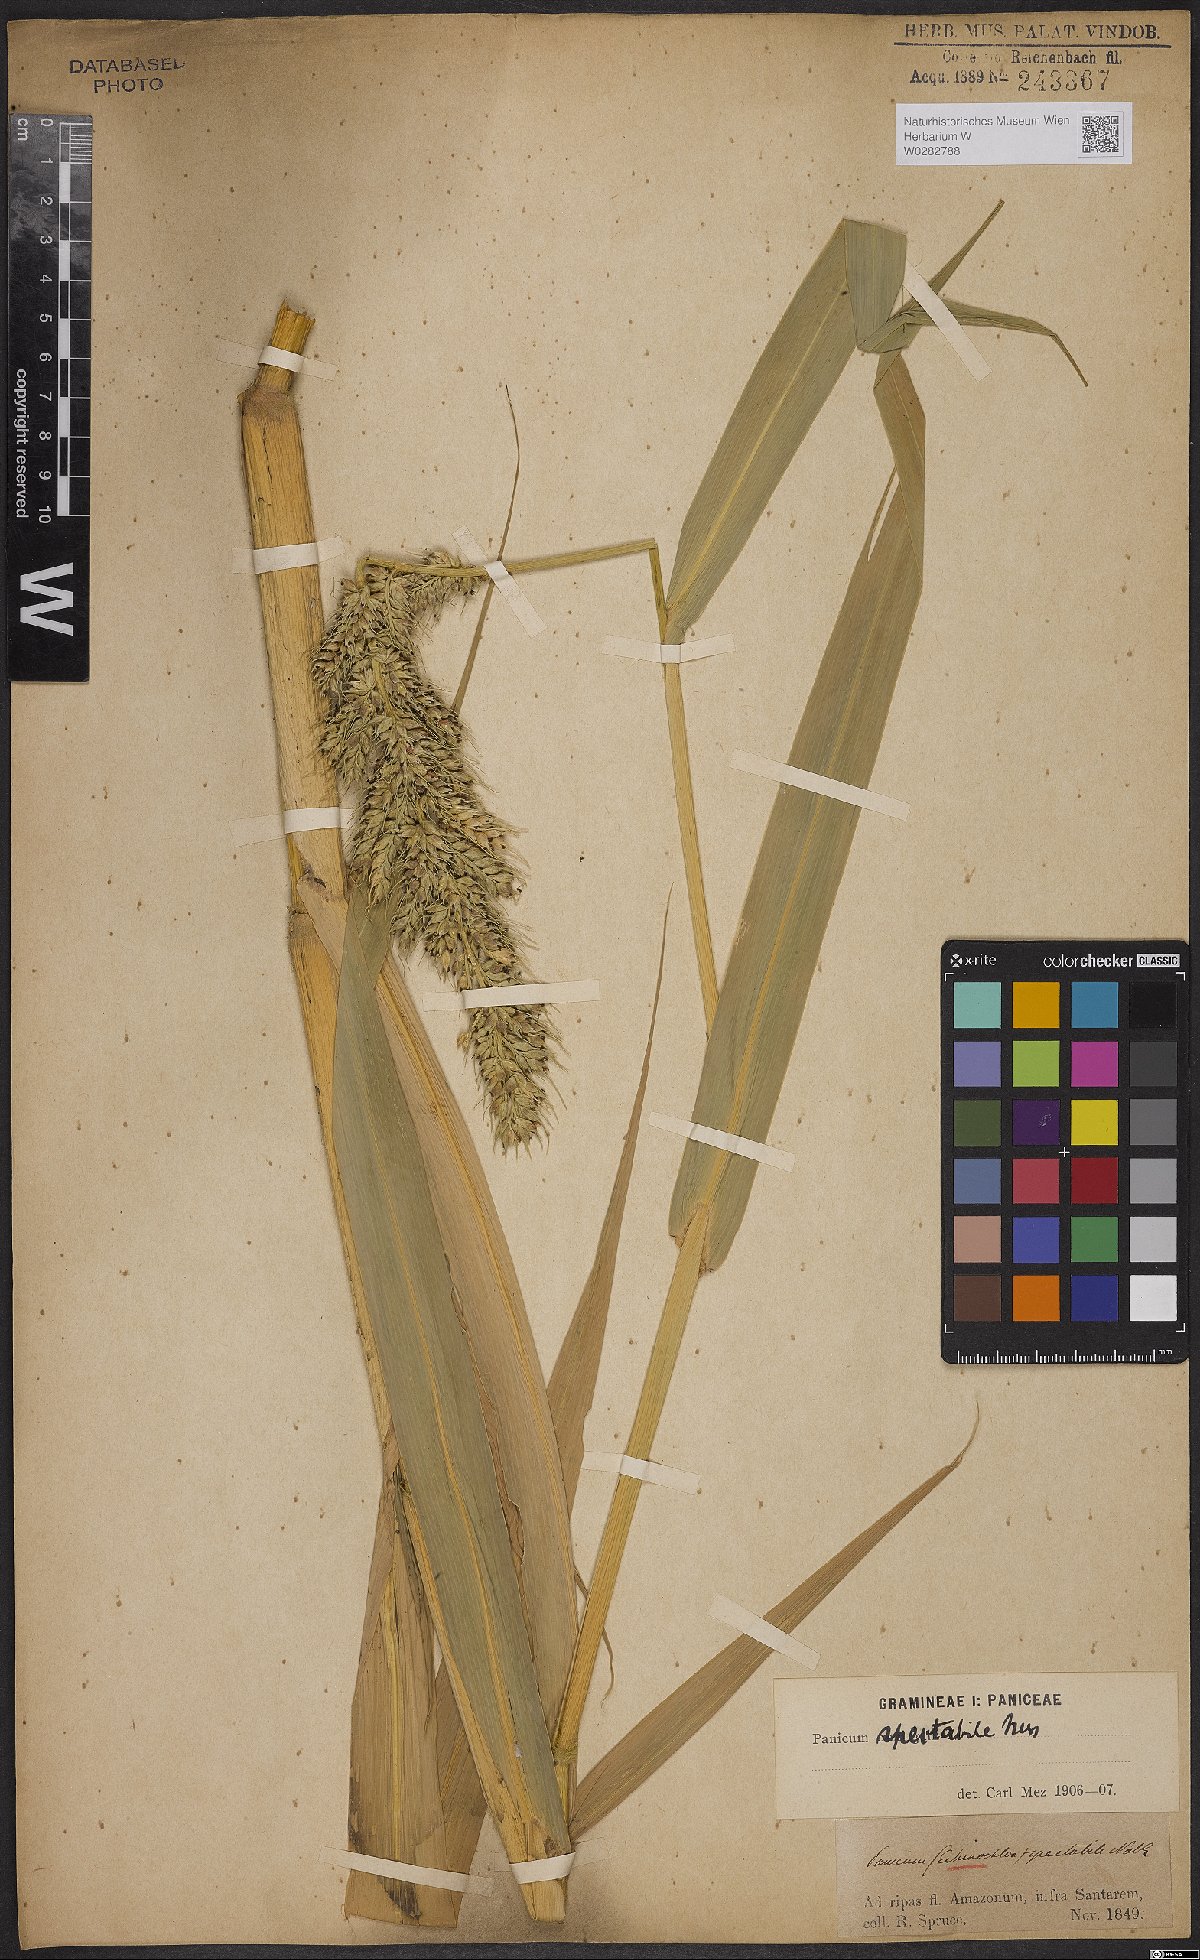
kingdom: Plantae
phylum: Tracheophyta
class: Liliopsida
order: Poales
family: Poaceae
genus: Echinochloa
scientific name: Echinochloa polystachya
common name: Creeping river grass
